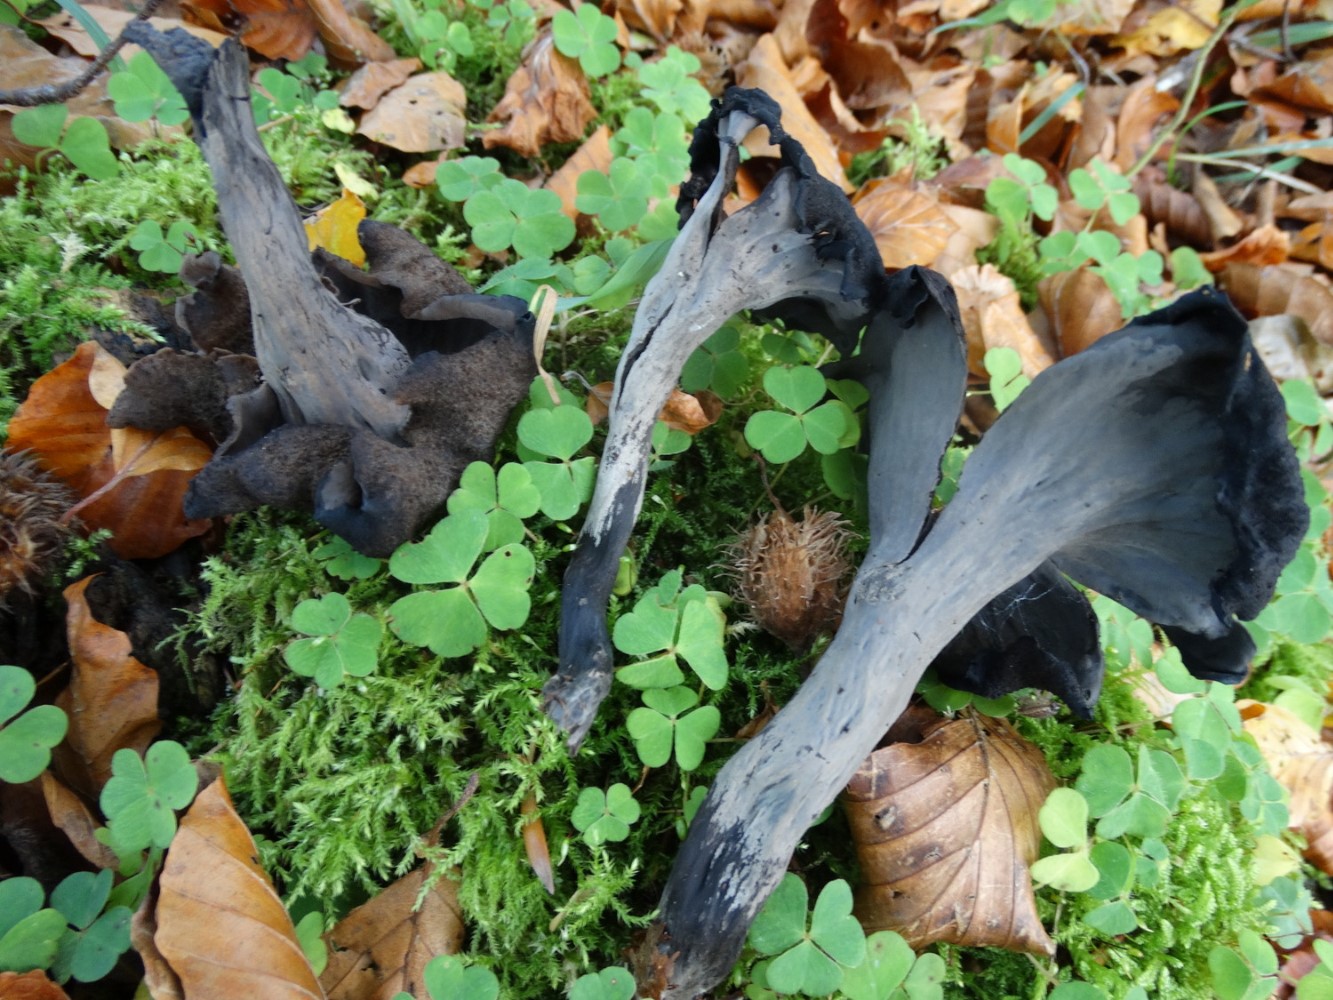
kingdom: Fungi
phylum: Basidiomycota
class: Agaricomycetes
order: Cantharellales
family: Hydnaceae
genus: Craterellus
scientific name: Craterellus cornucopioides
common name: trompetsvamp
